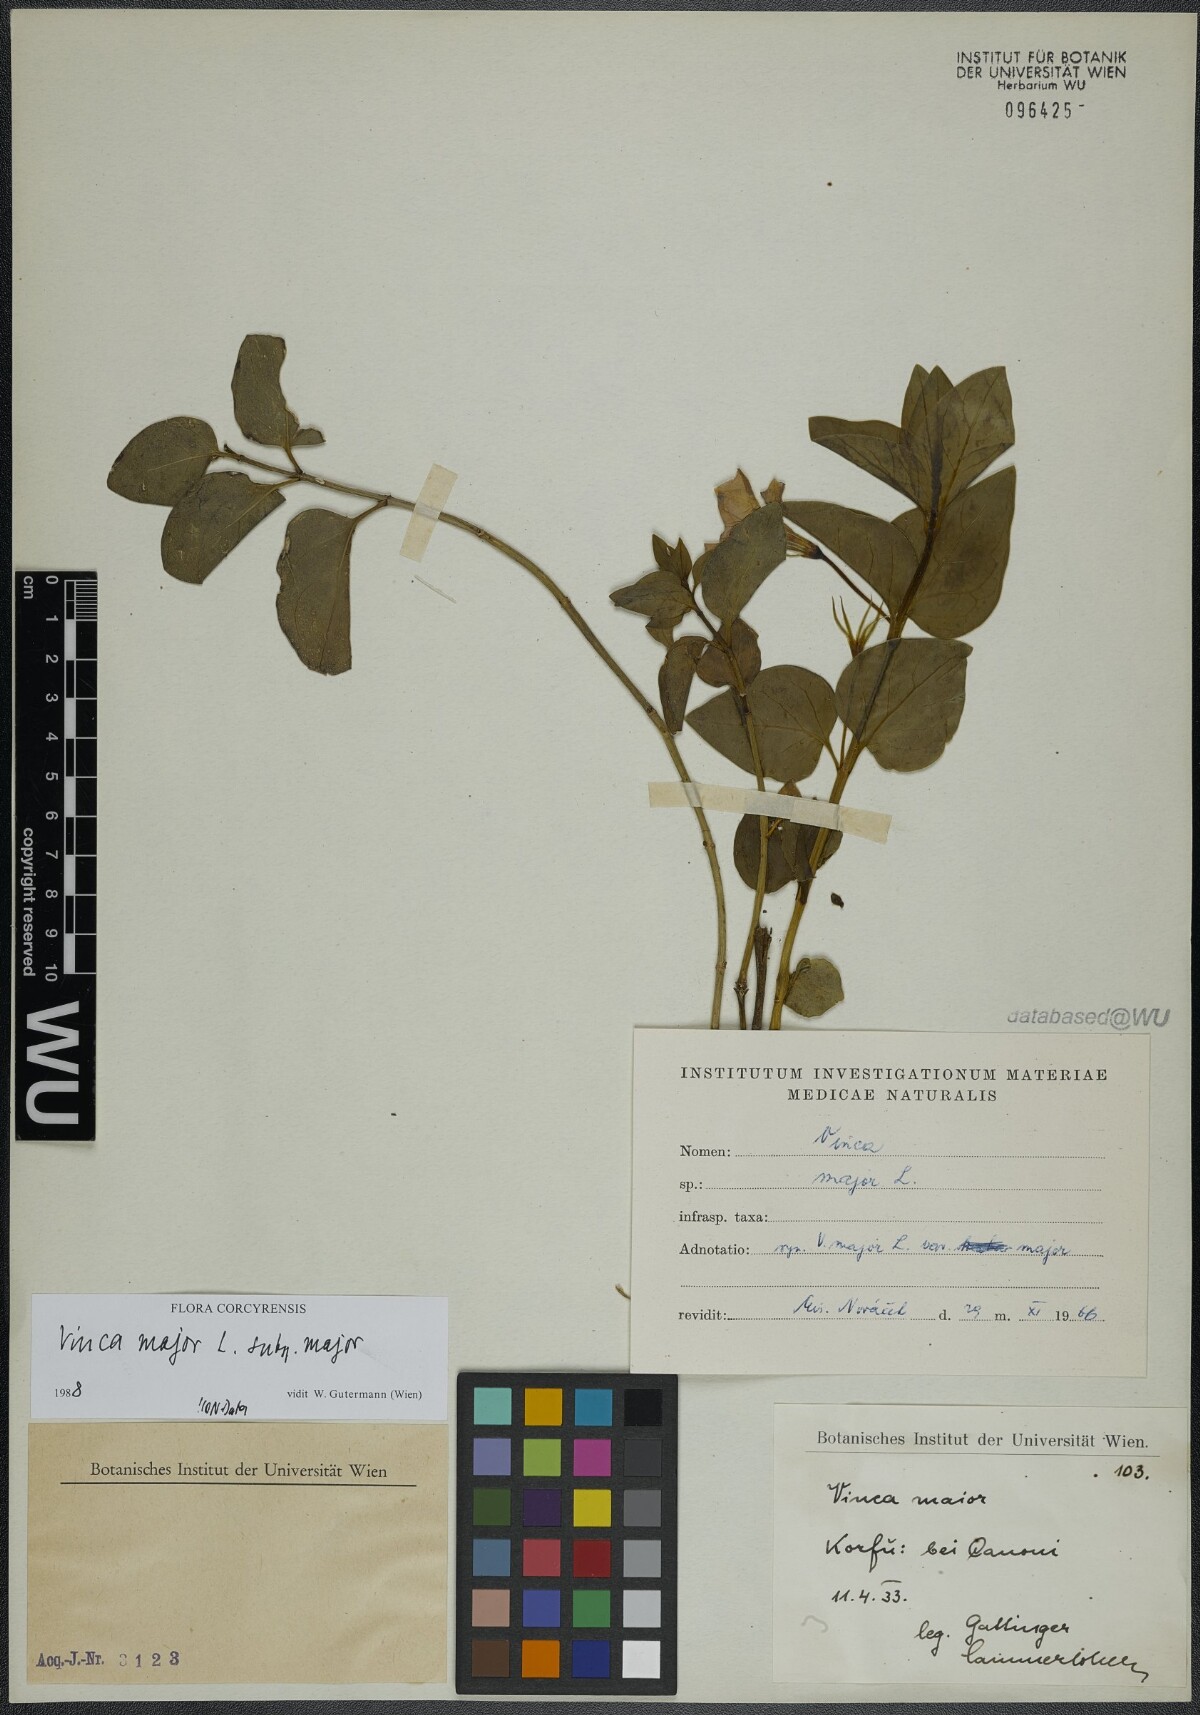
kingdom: Plantae
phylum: Tracheophyta
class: Magnoliopsida
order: Gentianales
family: Apocynaceae
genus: Vinca
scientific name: Vinca major
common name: Greater periwinkle
